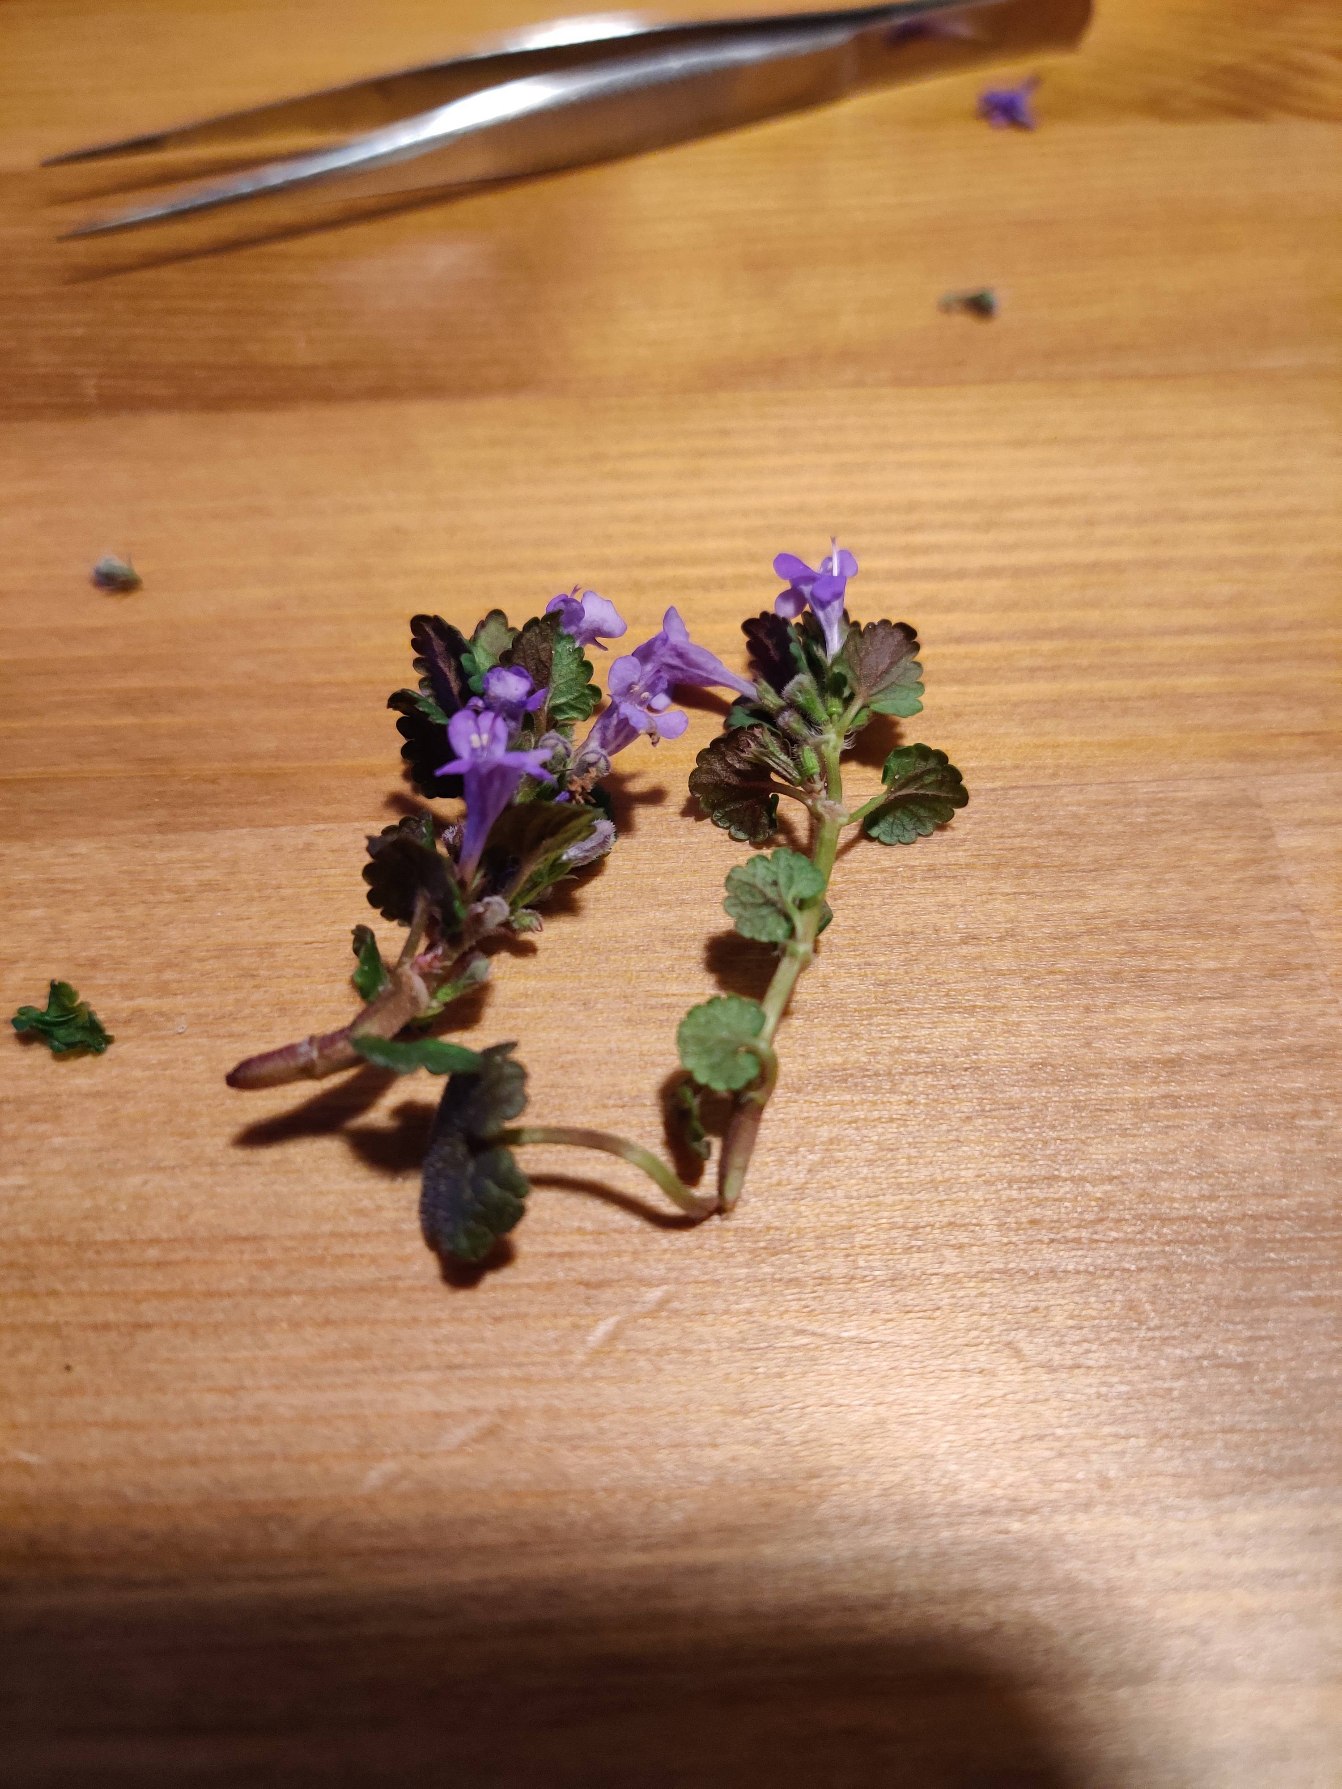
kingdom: Plantae
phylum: Tracheophyta
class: Magnoliopsida
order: Lamiales
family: Lamiaceae
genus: Glechoma
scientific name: Glechoma hederacea
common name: Korsknap
